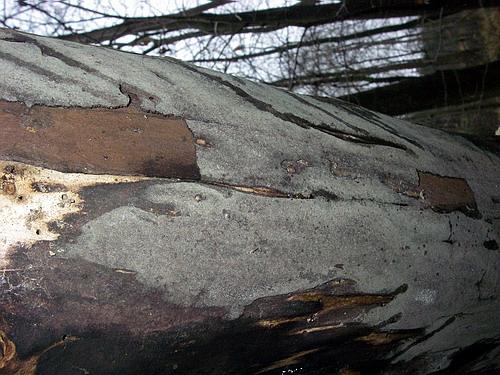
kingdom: Fungi
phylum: Ascomycota
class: Sordariomycetes
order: Xylariales
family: Hypoxylaceae
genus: Hypoxylon
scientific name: Hypoxylon macrocarpum
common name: skorpe-kulbær
